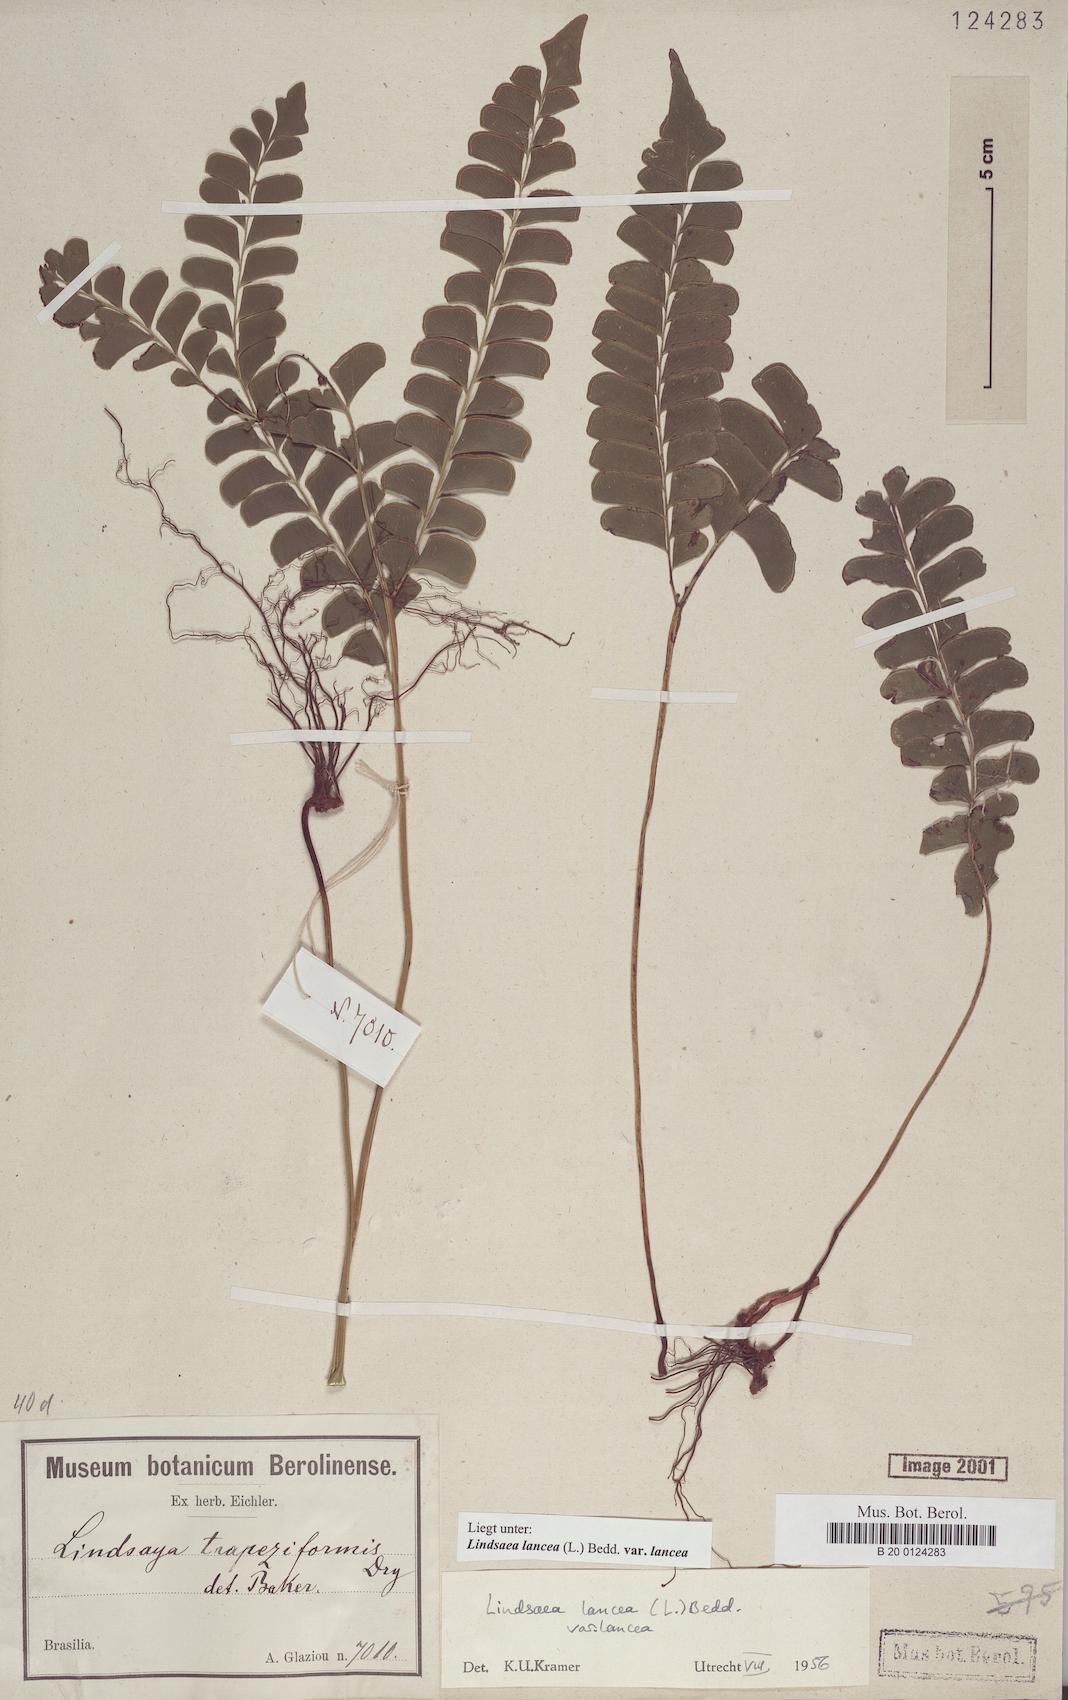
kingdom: Plantae
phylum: Tracheophyta
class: Polypodiopsida
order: Polypodiales
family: Lindsaeaceae
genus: Lindsaea
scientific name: Lindsaea lancea
